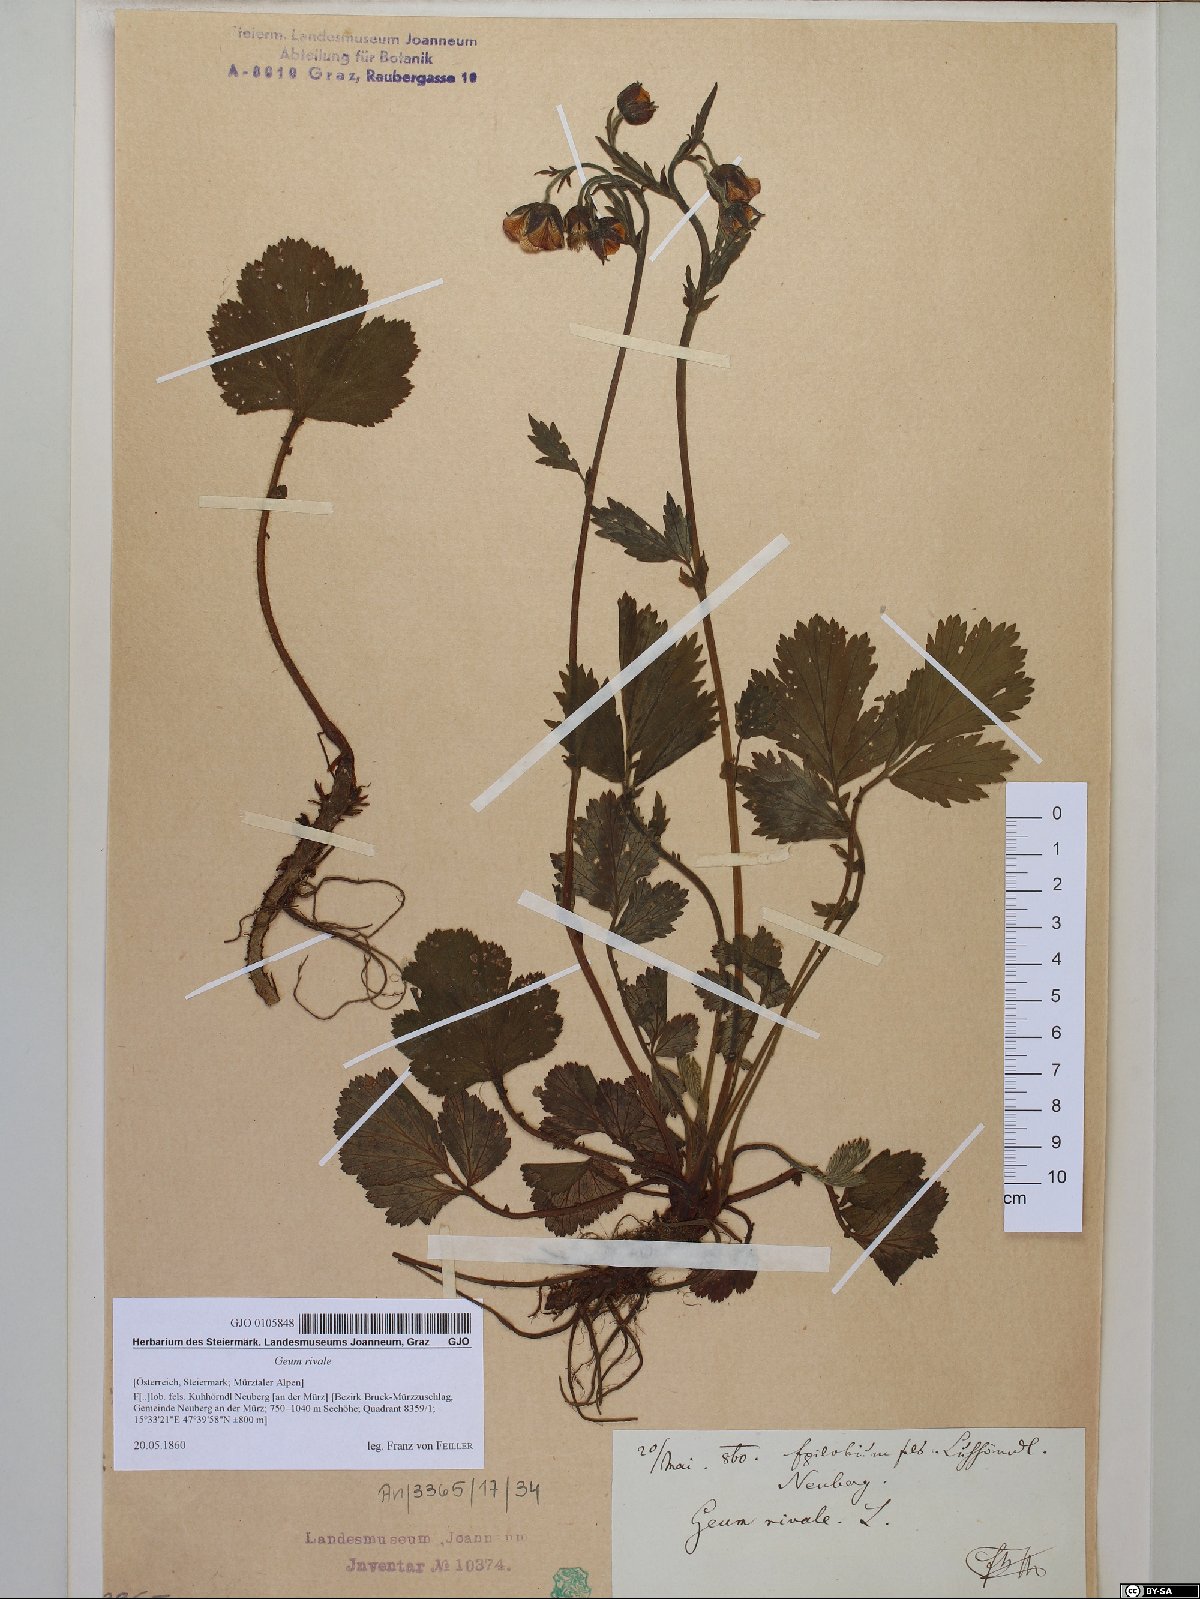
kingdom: Plantae
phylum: Tracheophyta
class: Magnoliopsida
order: Rosales
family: Rosaceae
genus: Geum
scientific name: Geum rivale
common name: Water avens
